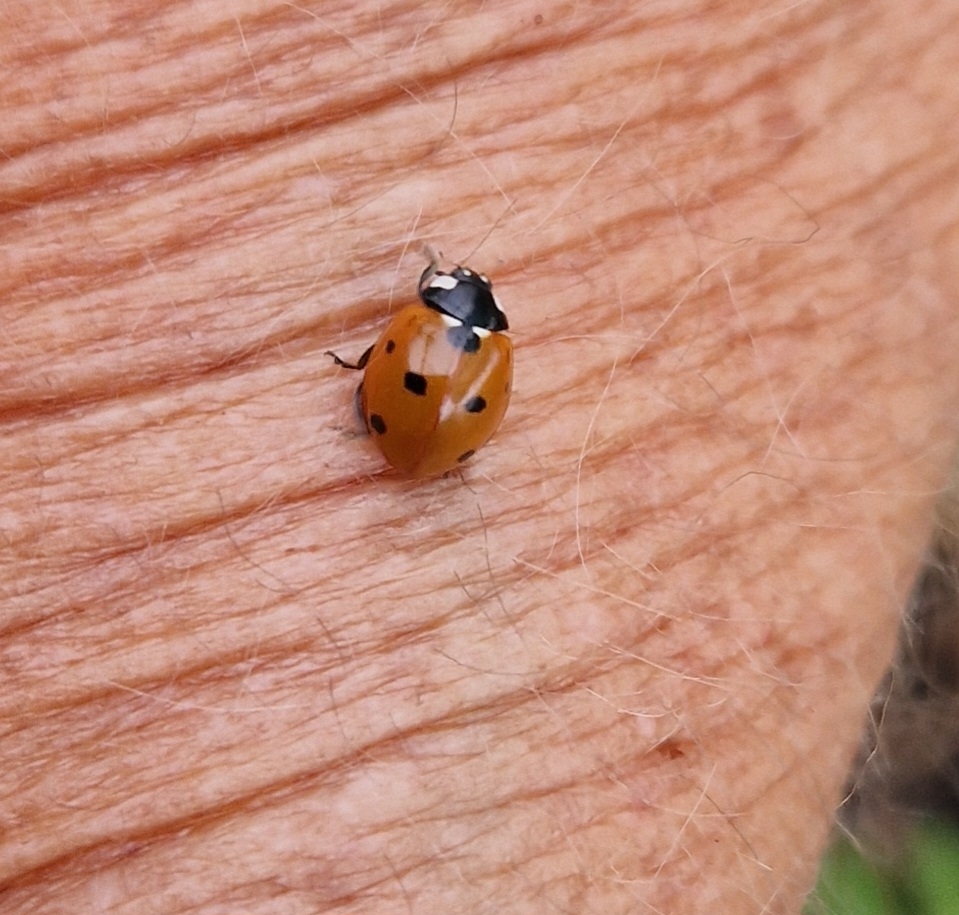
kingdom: Animalia
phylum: Arthropoda
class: Insecta
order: Coleoptera
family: Coccinellidae
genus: Coccinella
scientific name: Coccinella septempunctata
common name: Syvplettet mariehøne
